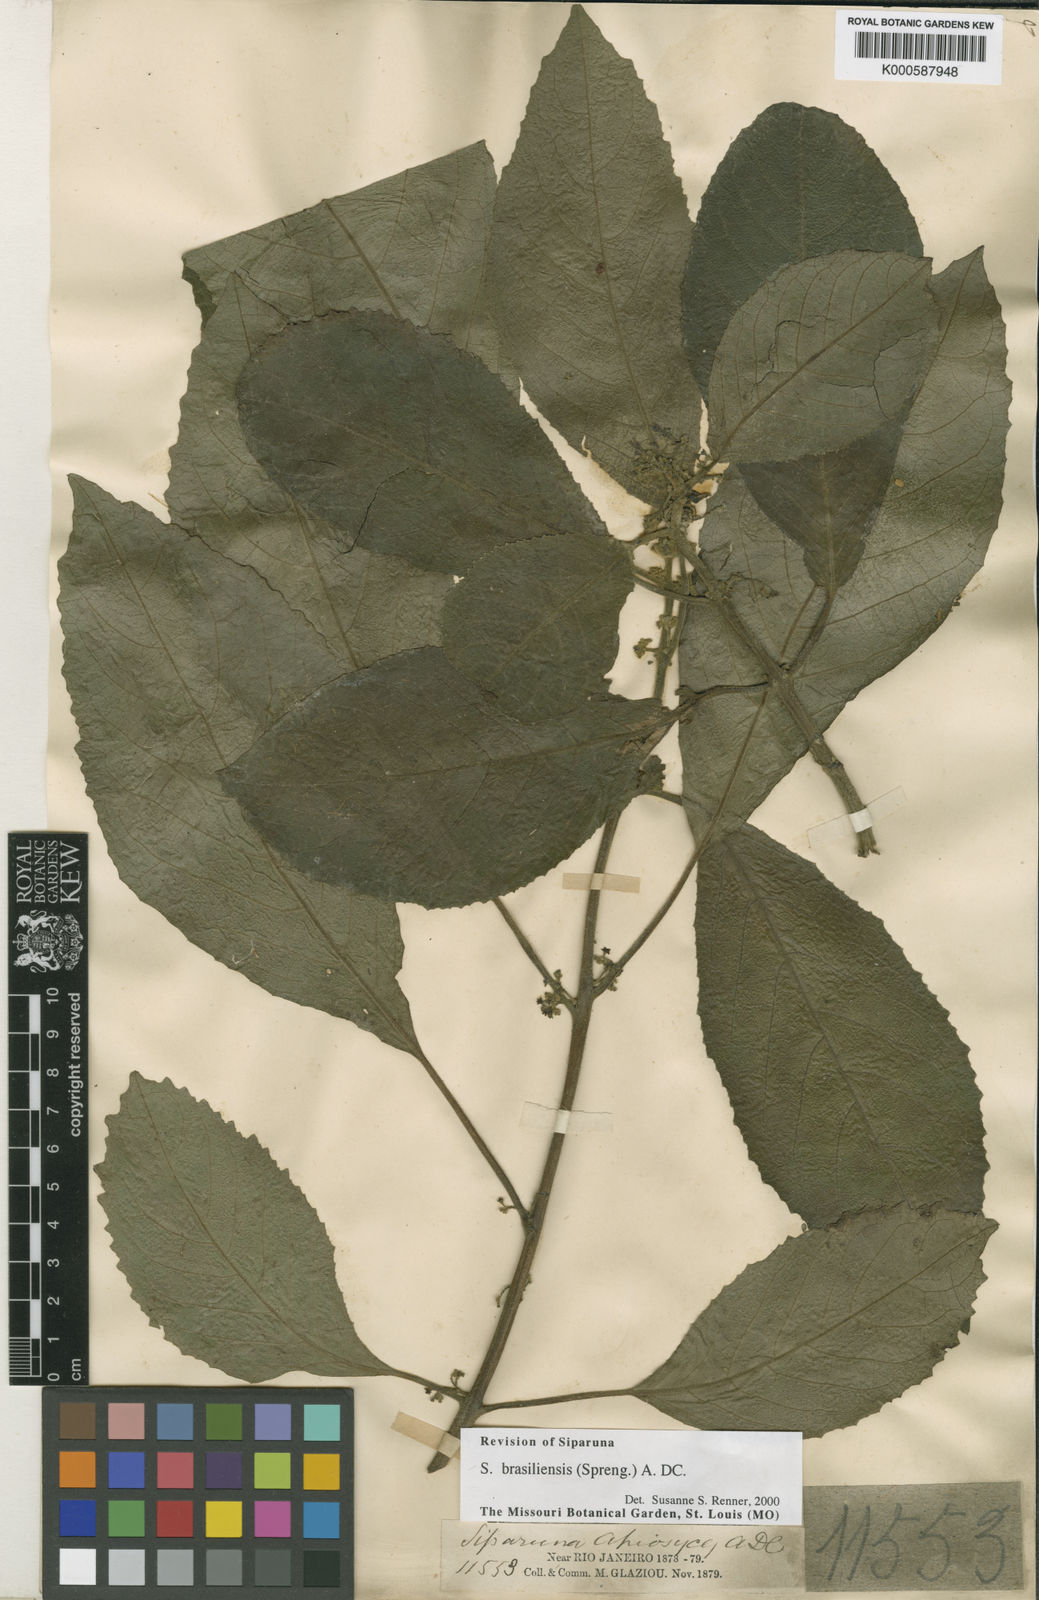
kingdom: Plantae
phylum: Tracheophyta
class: Magnoliopsida
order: Laurales
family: Siparunaceae
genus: Siparuna
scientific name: Siparuna brasiliensis
